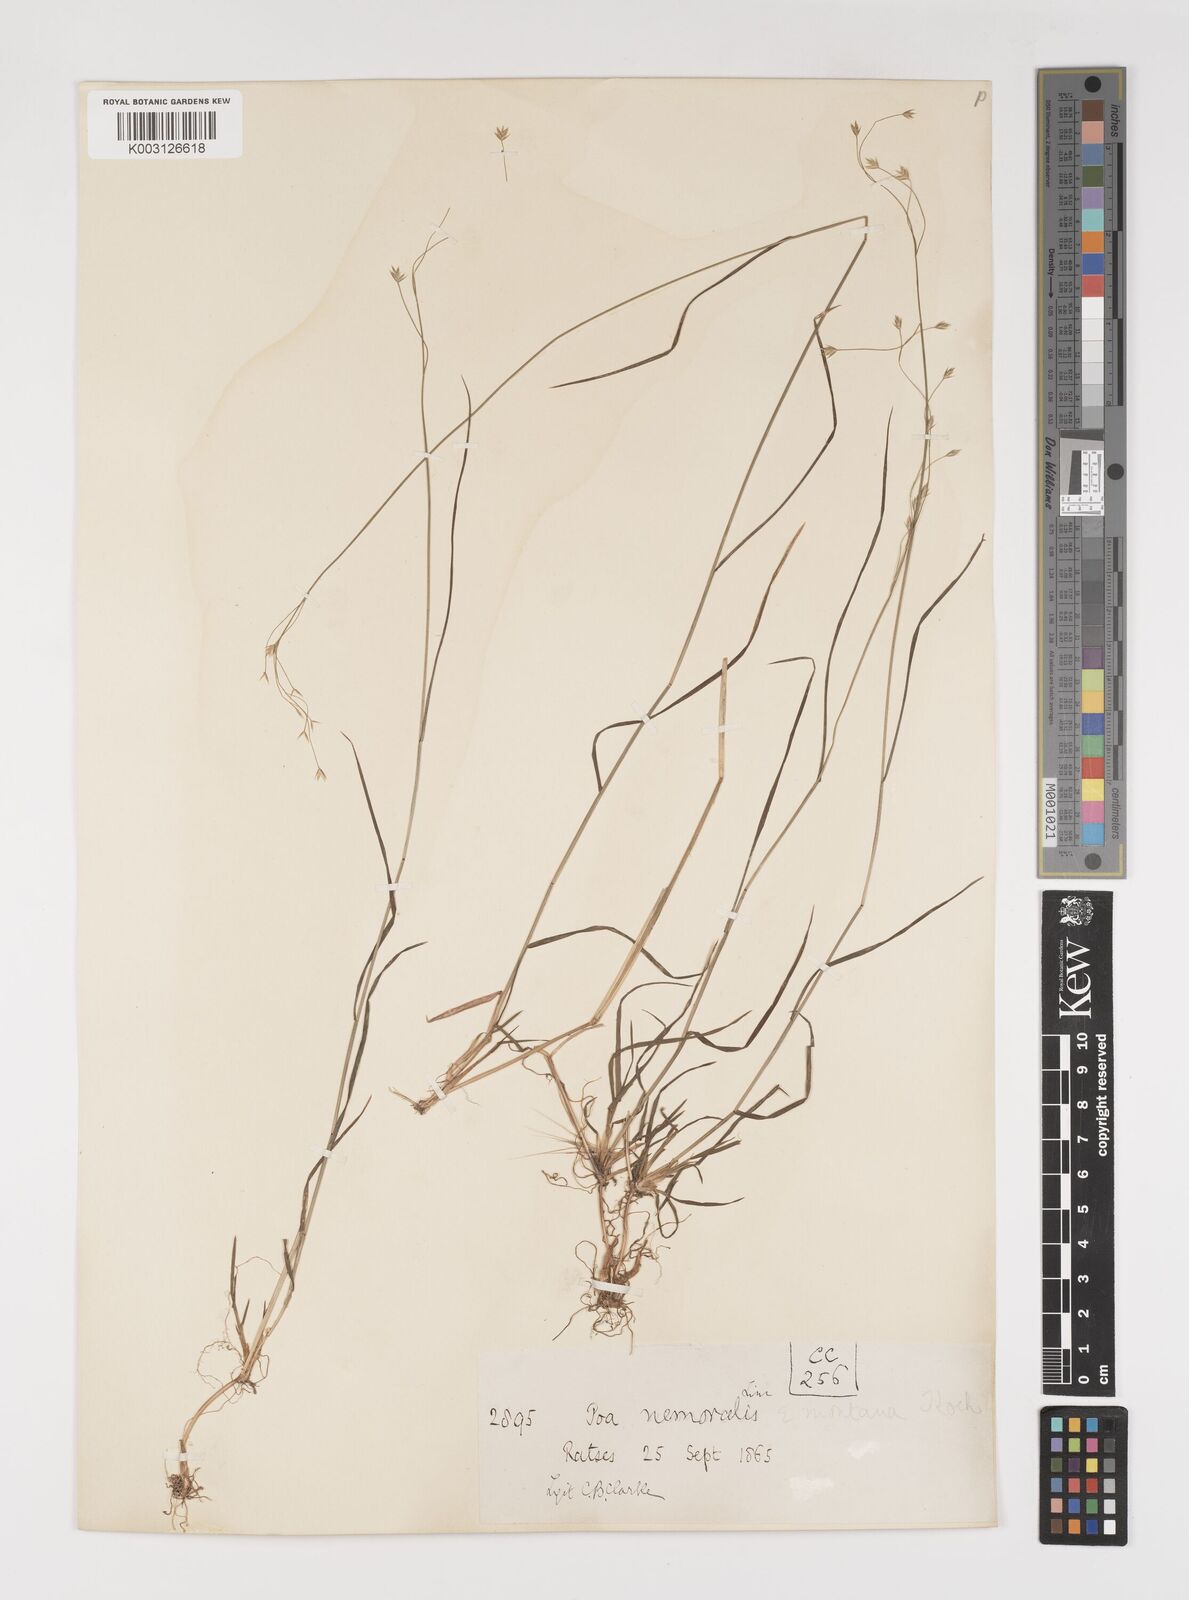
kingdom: Plantae
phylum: Tracheophyta
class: Liliopsida
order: Poales
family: Poaceae
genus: Poa
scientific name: Poa nemoralis
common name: Wood bluegrass
